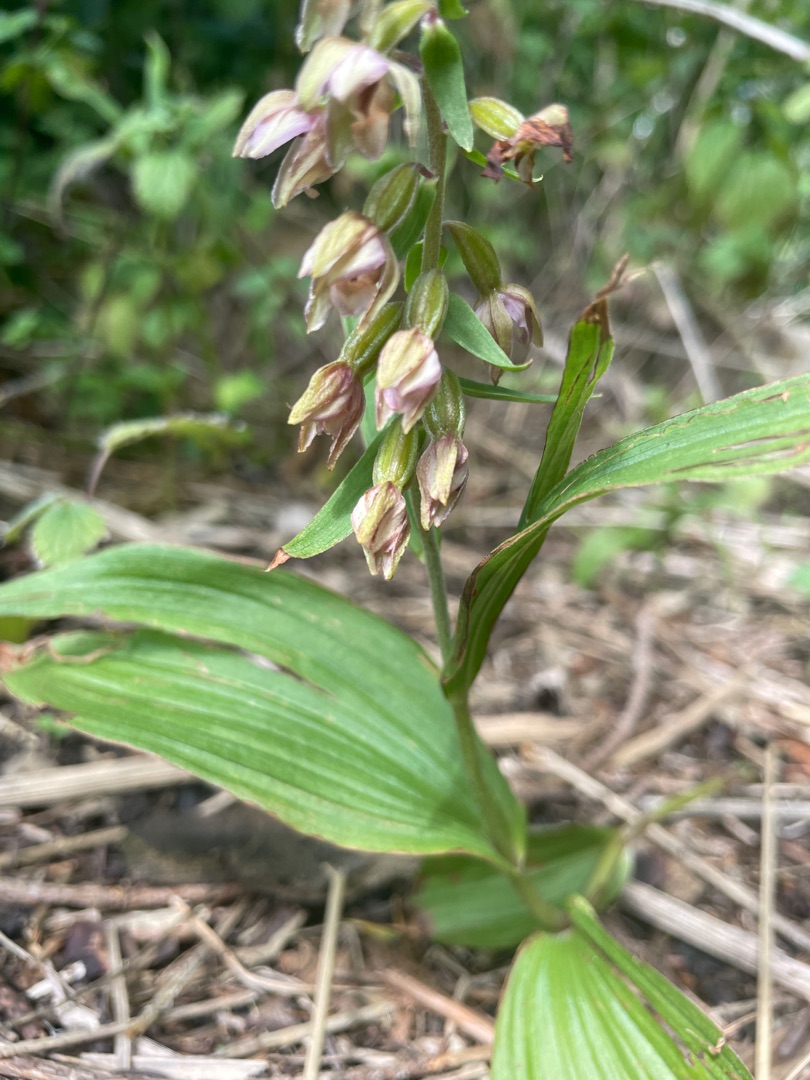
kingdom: Plantae
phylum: Tracheophyta
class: Liliopsida
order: Asparagales
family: Orchidaceae
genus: Epipactis
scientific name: Epipactis helleborine
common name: Skov-hullæbe
